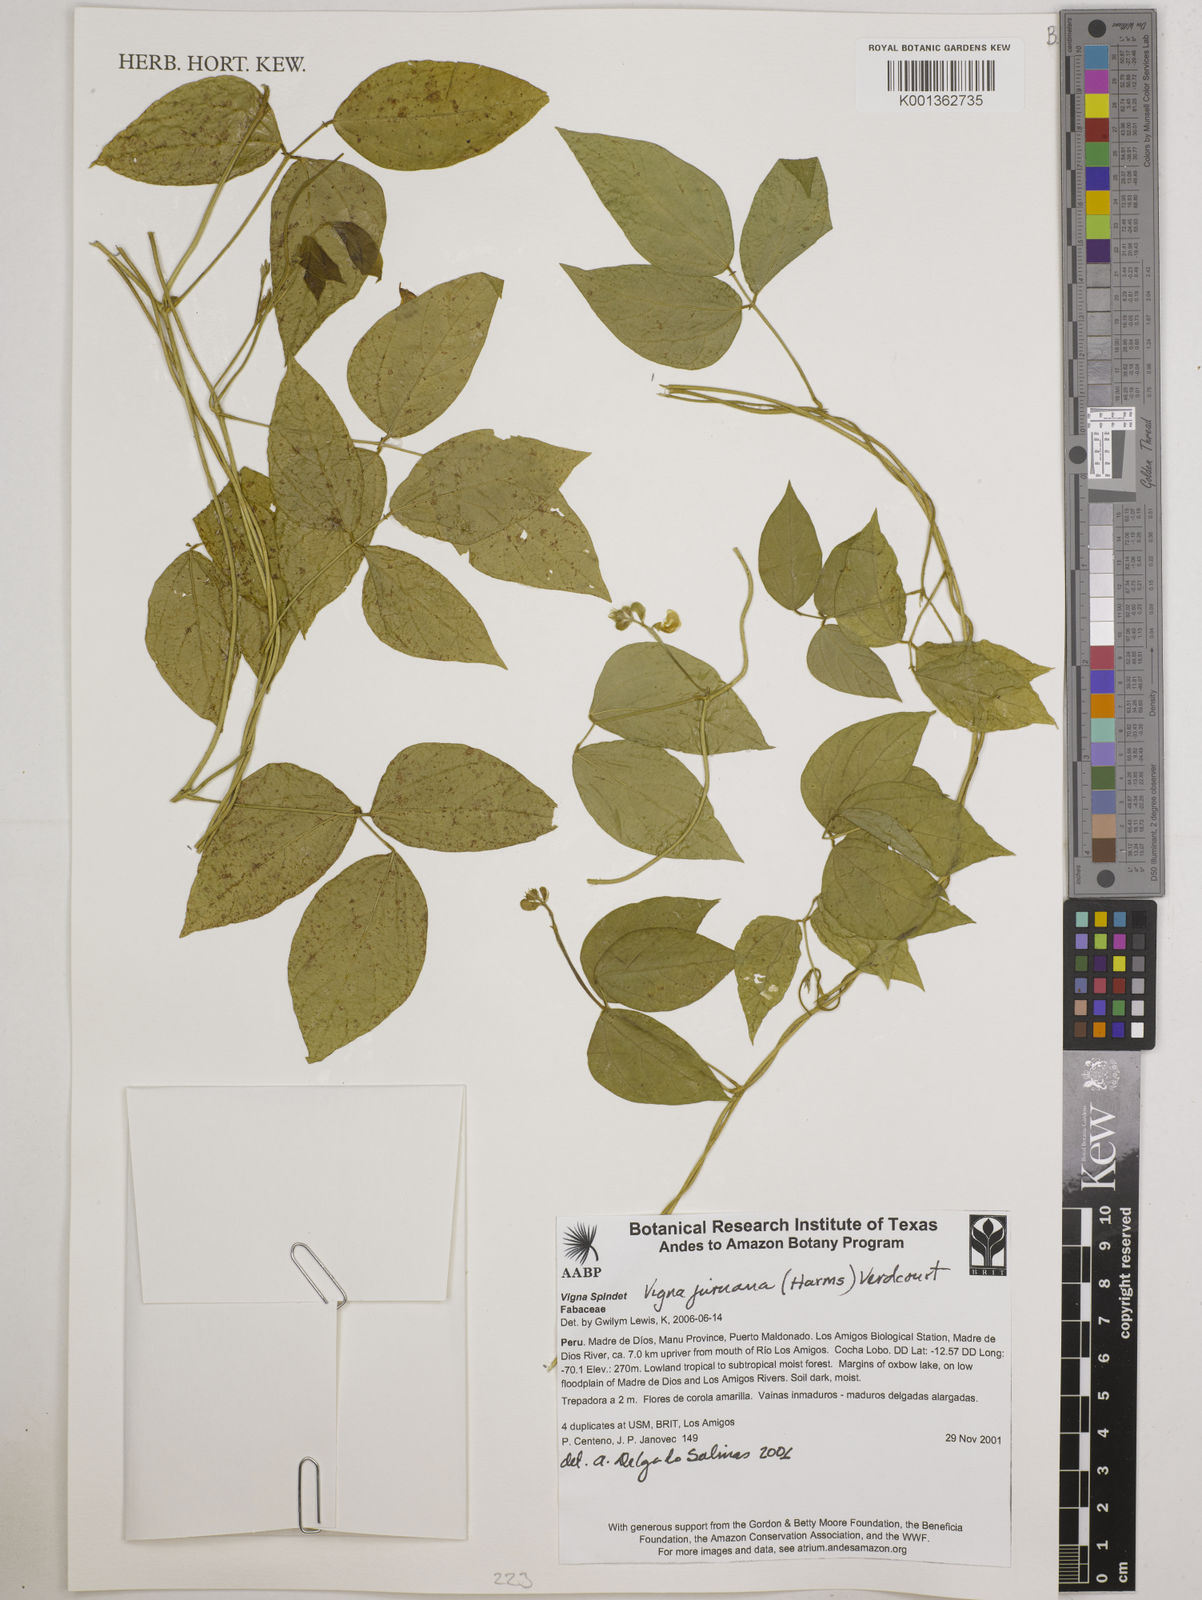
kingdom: Plantae
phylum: Tracheophyta
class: Magnoliopsida
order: Fabales
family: Fabaceae
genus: Vigna
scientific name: Vigna juruana
